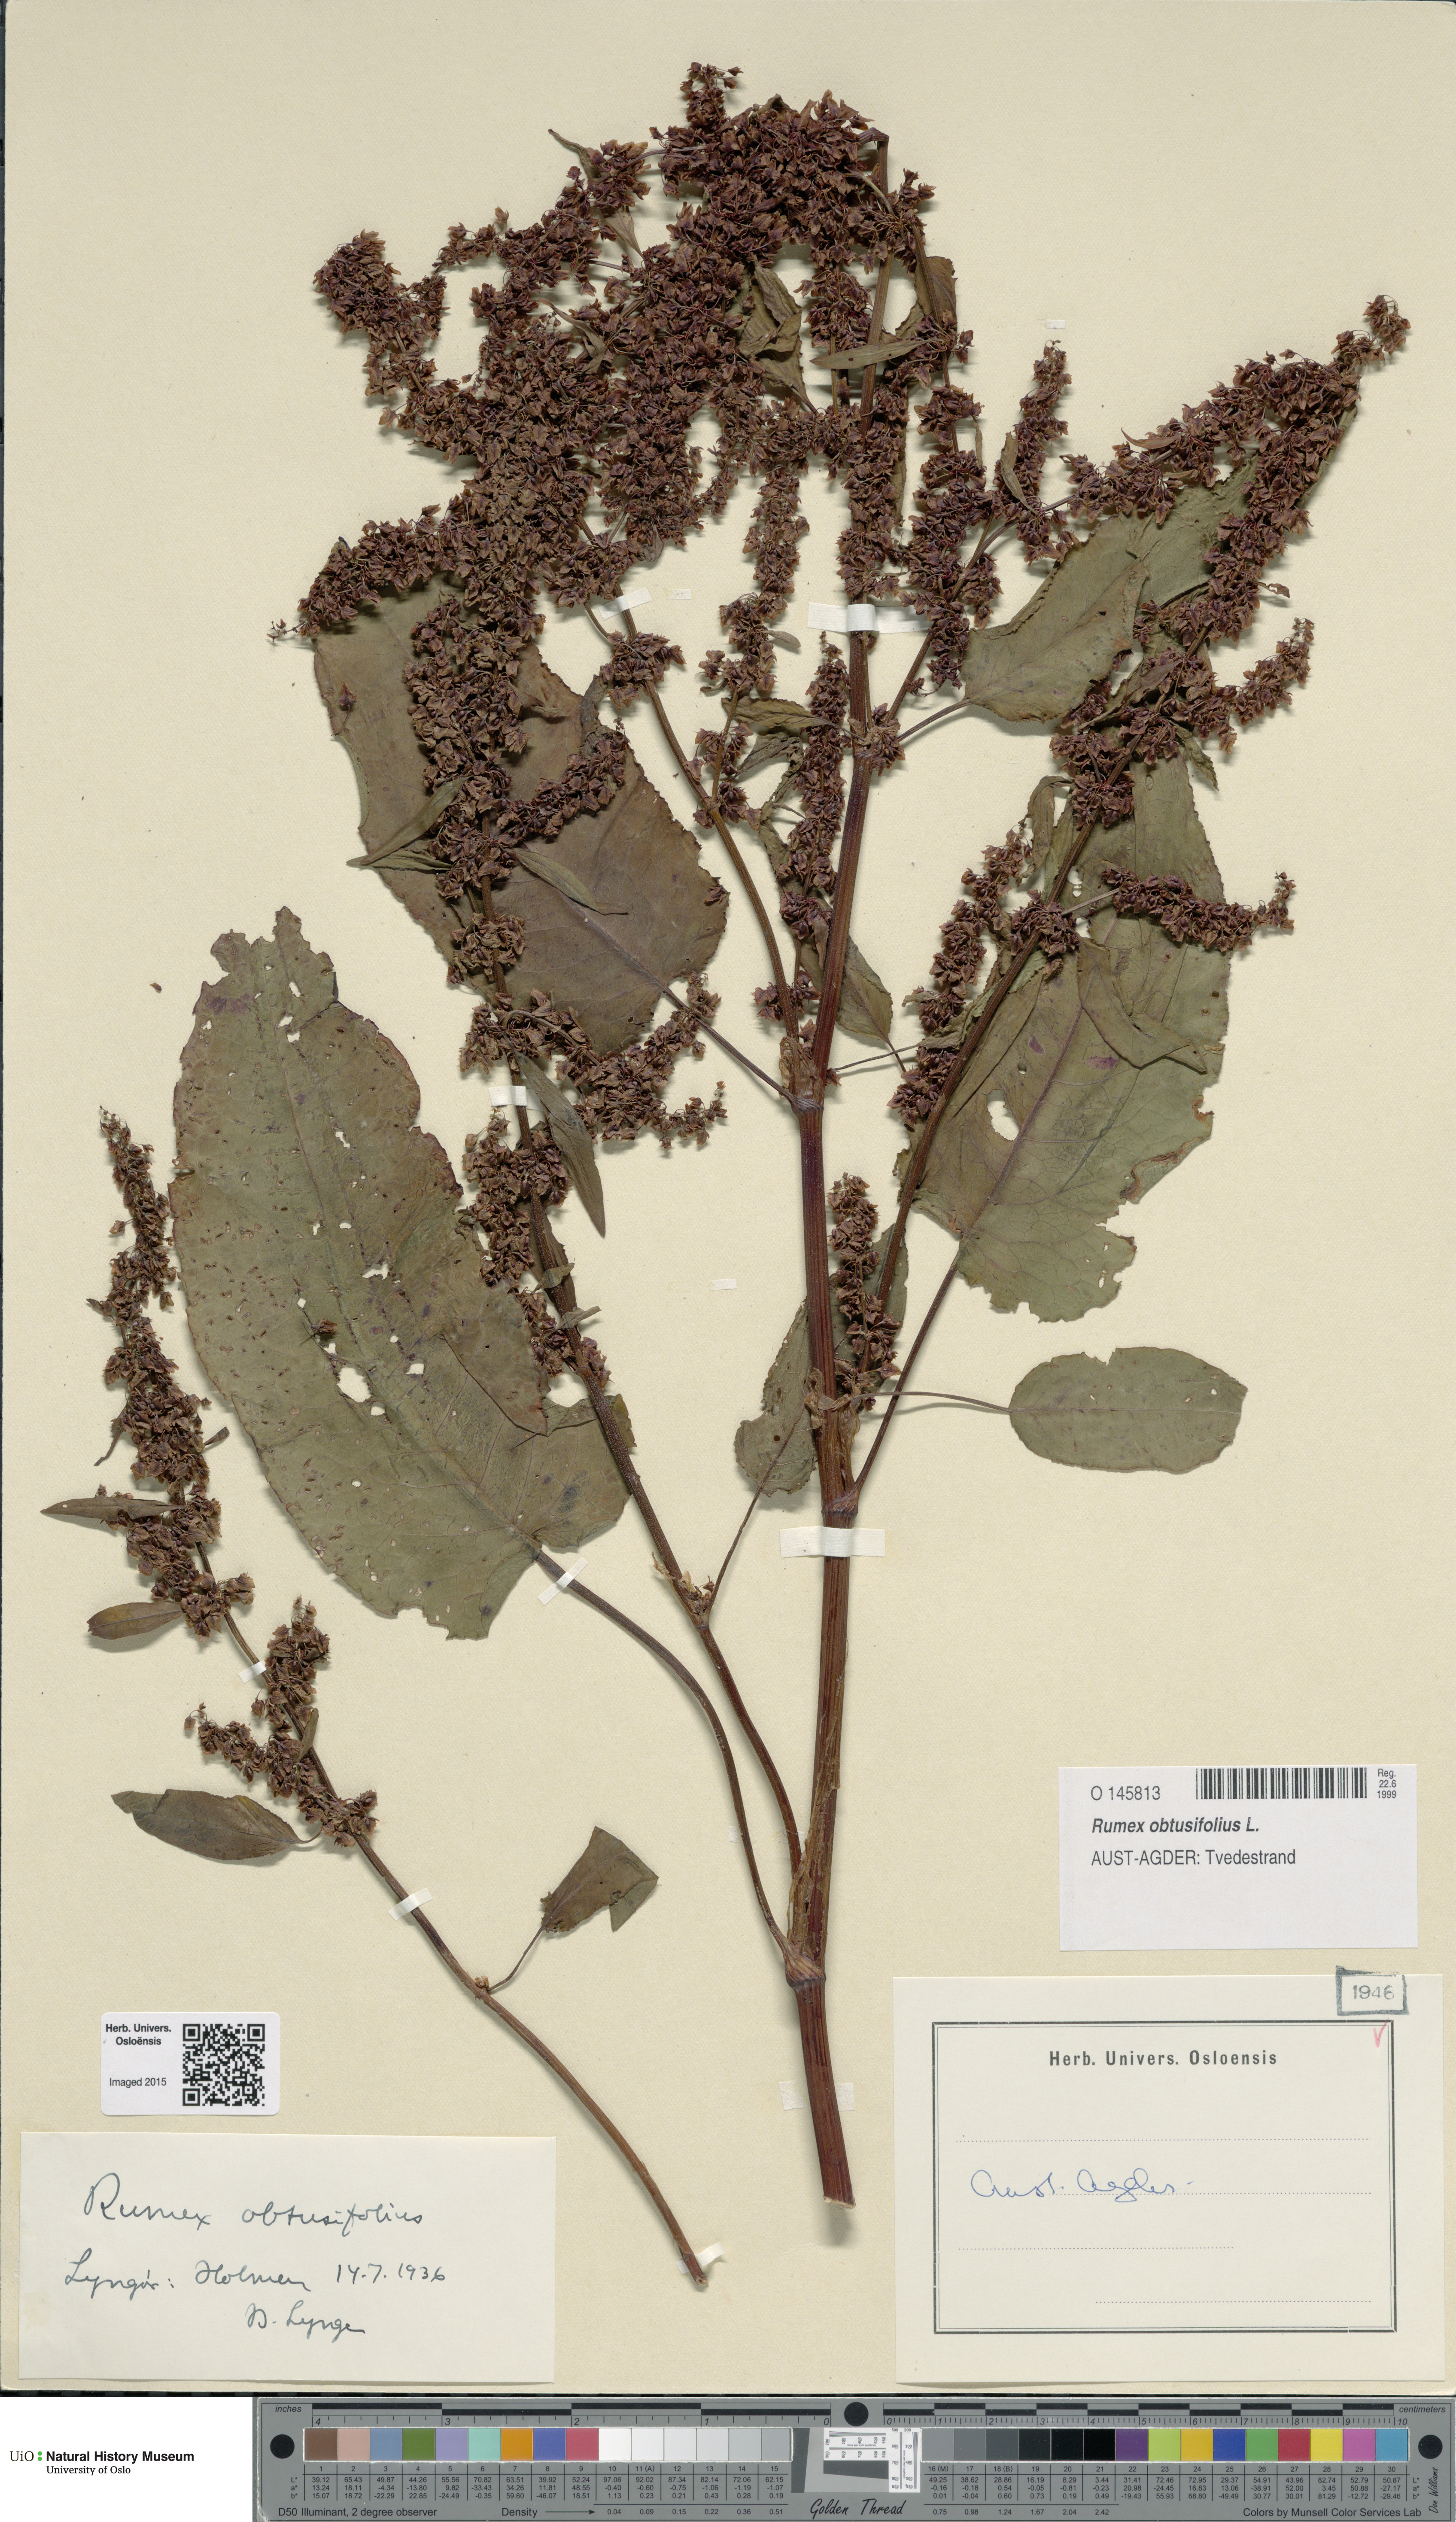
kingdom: Plantae
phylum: Tracheophyta
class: Magnoliopsida
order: Caryophyllales
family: Polygonaceae
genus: Rumex
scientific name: Rumex obtusifolius
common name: Bitter dock
